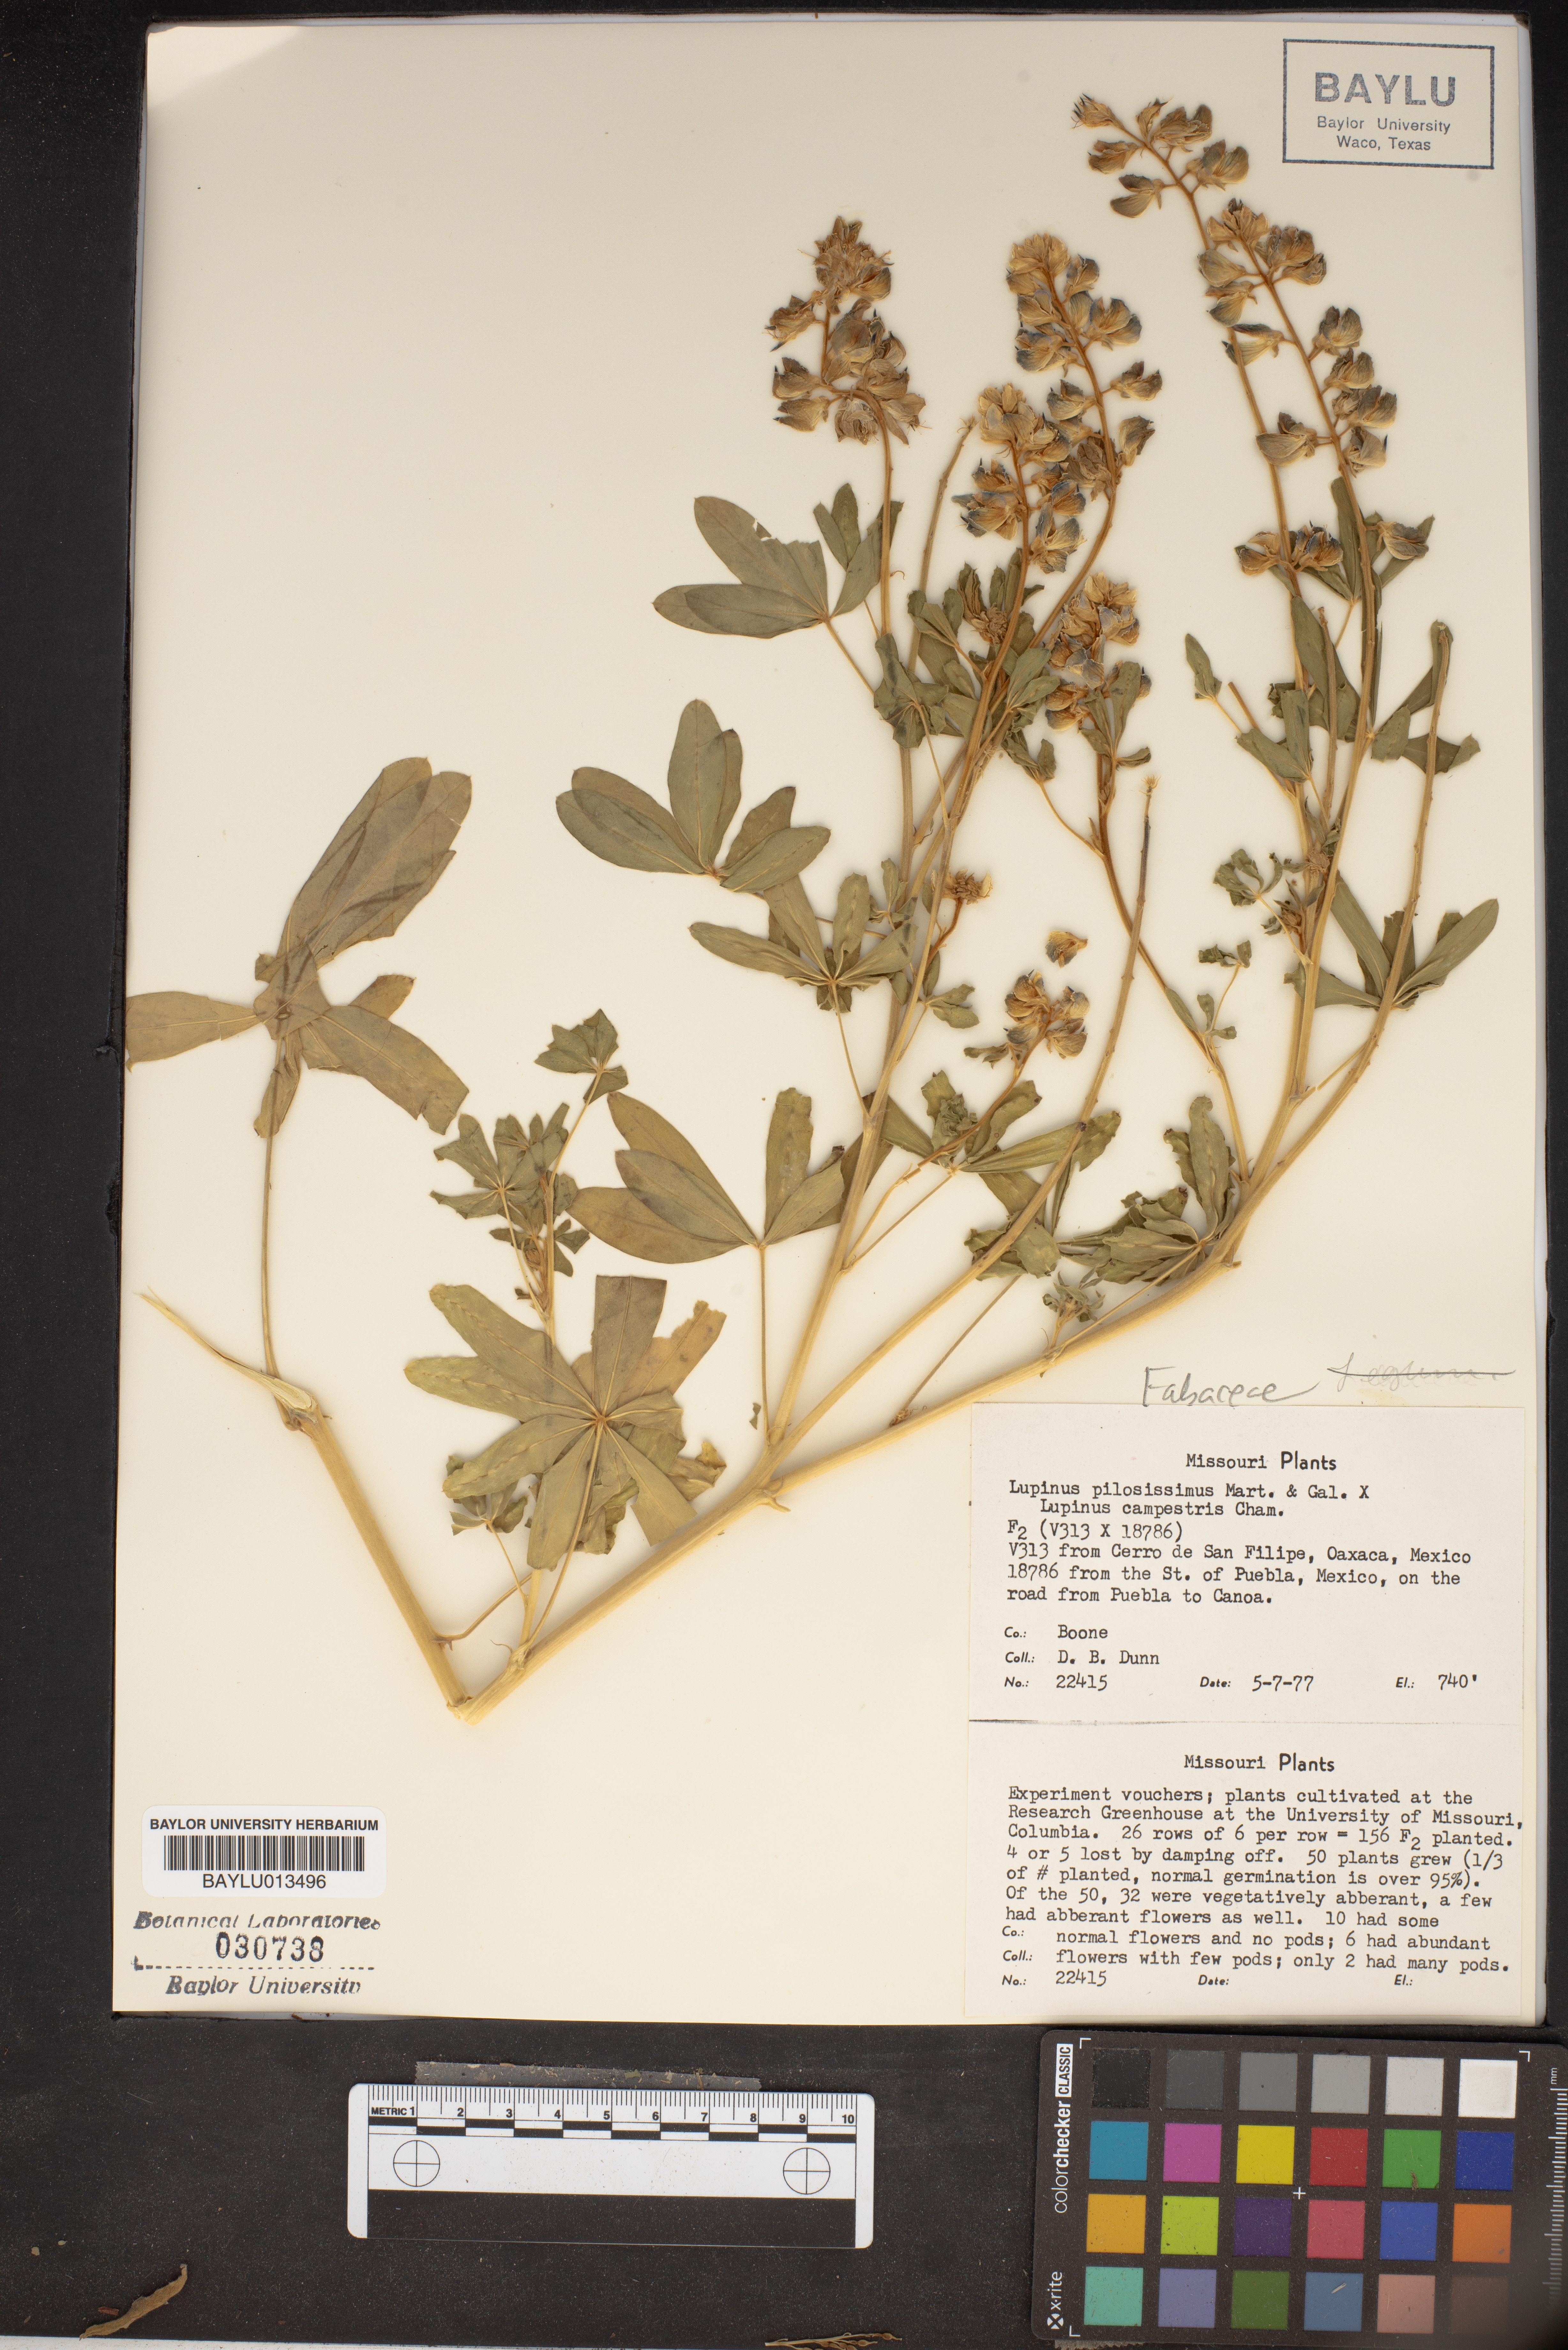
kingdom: Plantae
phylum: Tracheophyta
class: Magnoliopsida
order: Fabales
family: Fabaceae
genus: Lupinus
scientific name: Lupinus pilosissimus
